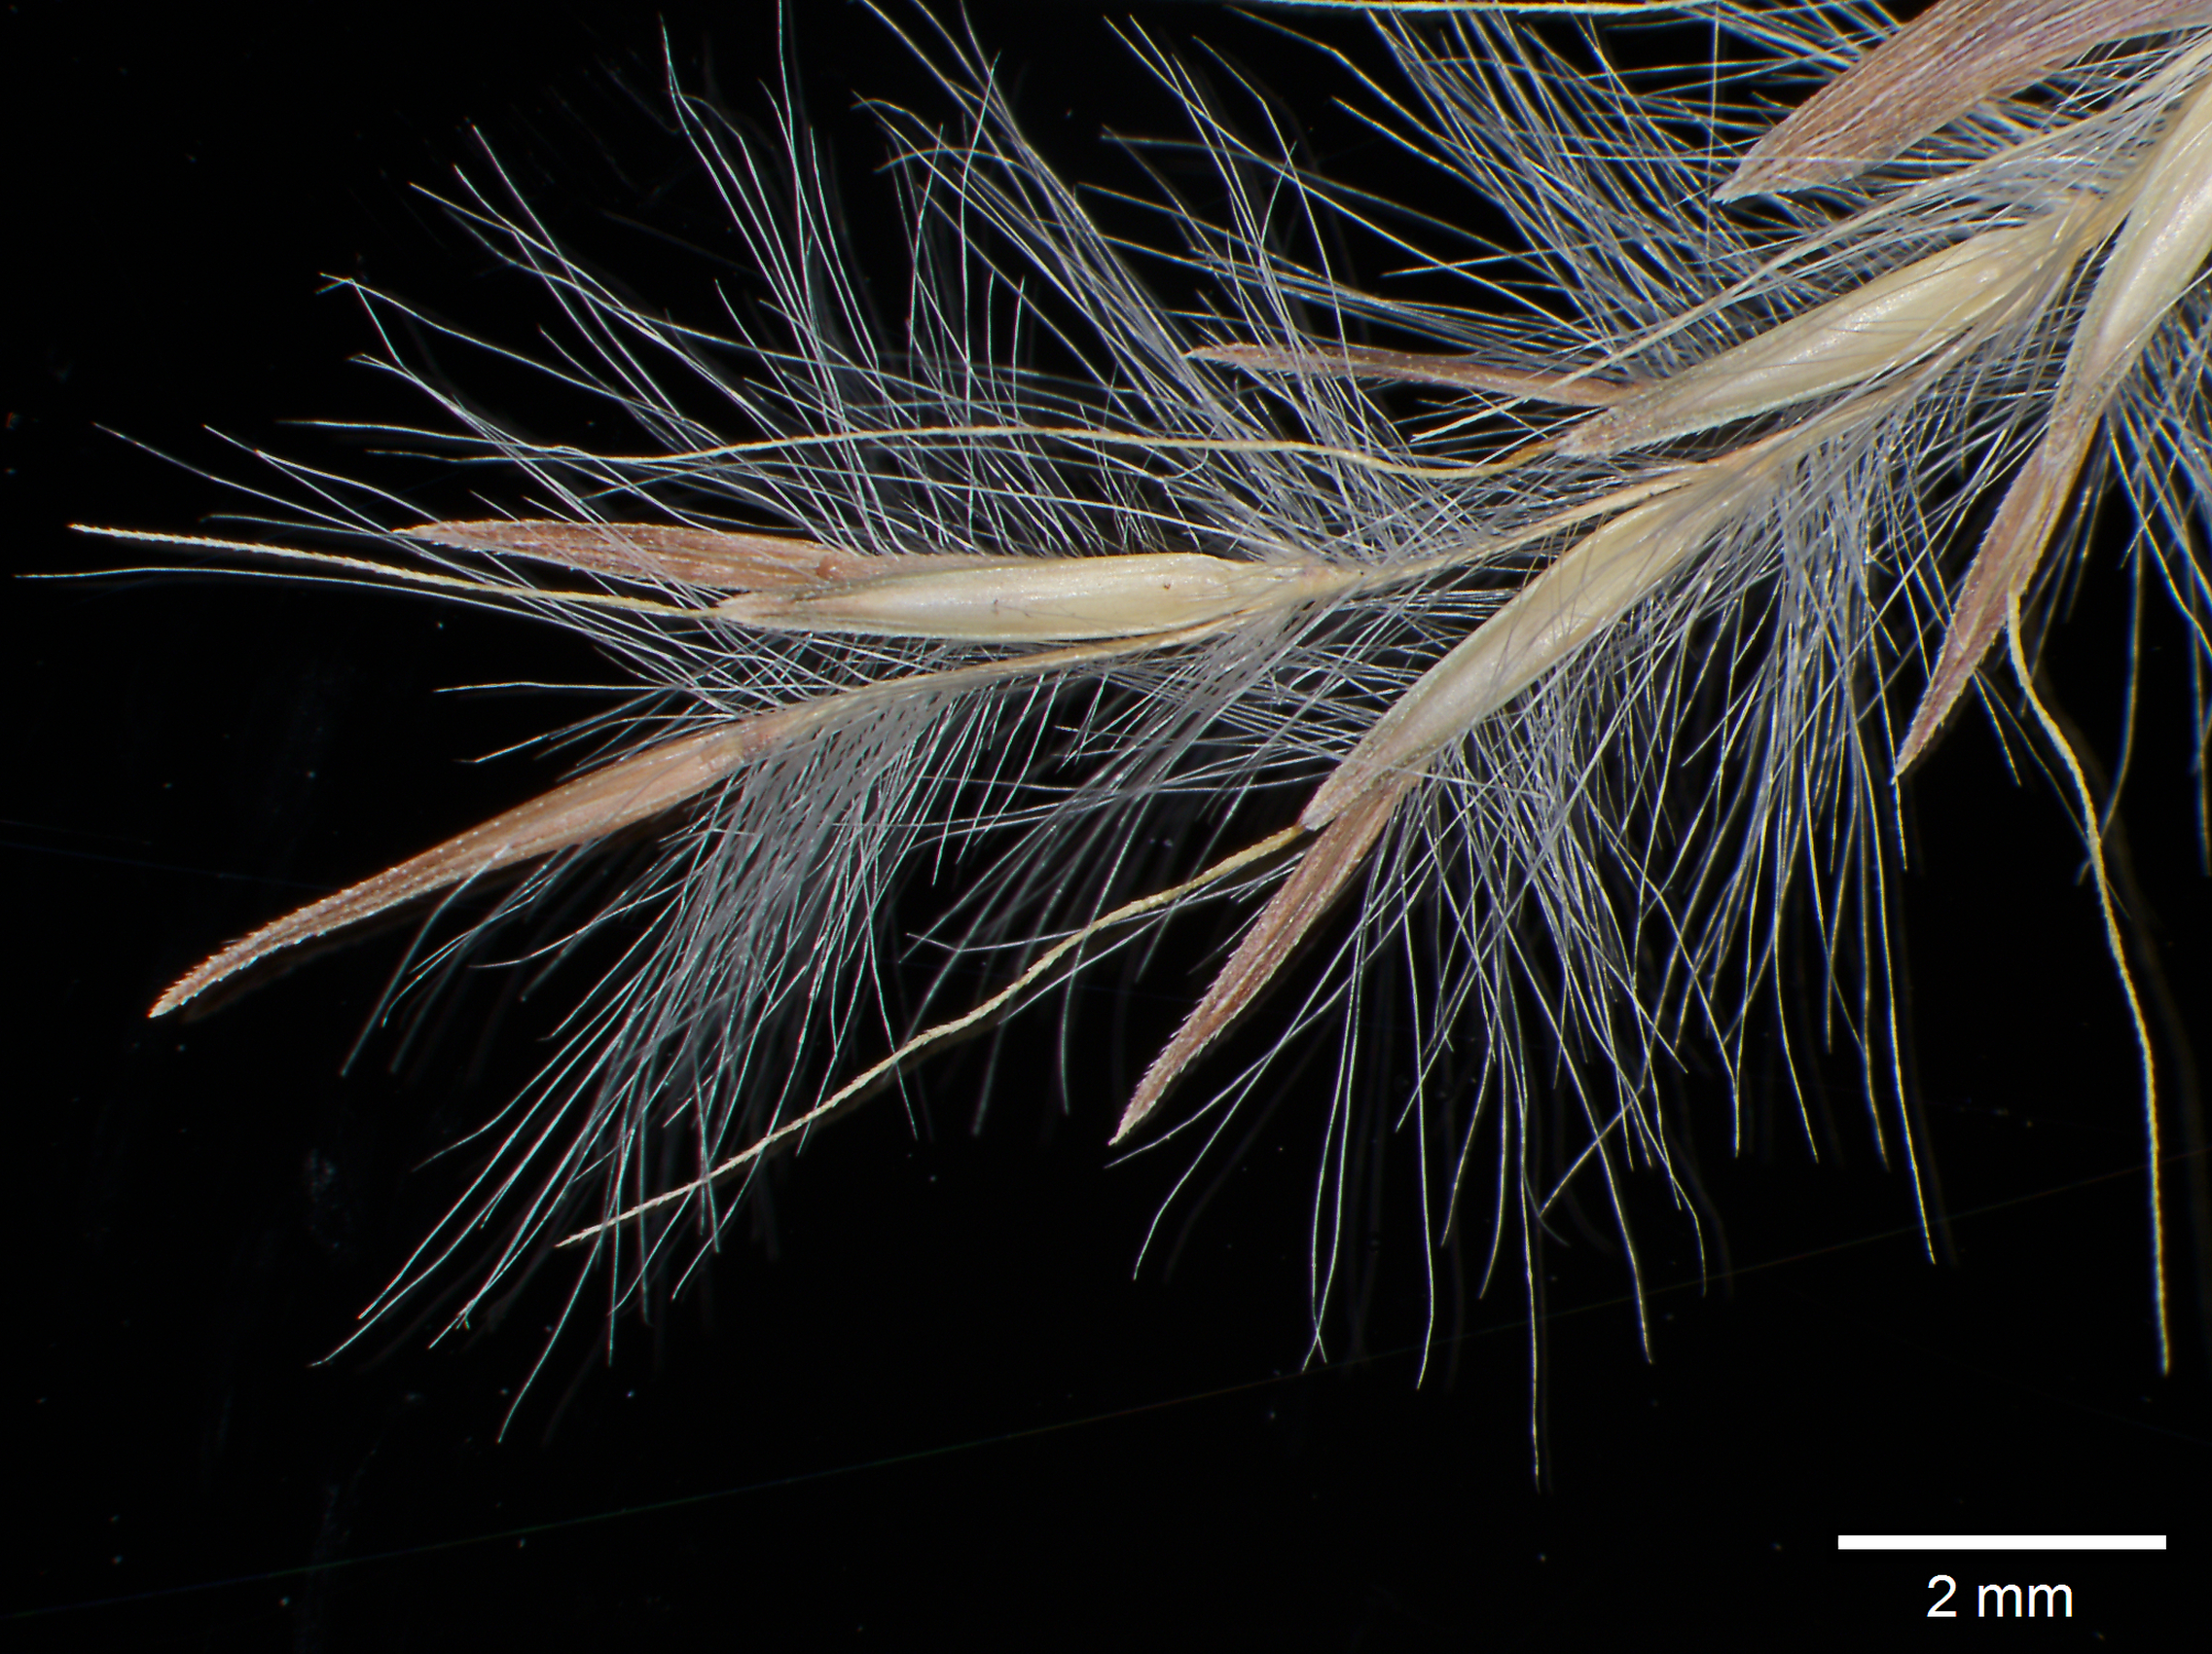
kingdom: Plantae
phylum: Tracheophyta
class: Liliopsida
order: Poales
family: Poaceae
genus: Schizachyrium
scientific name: Schizachyrium reedii
